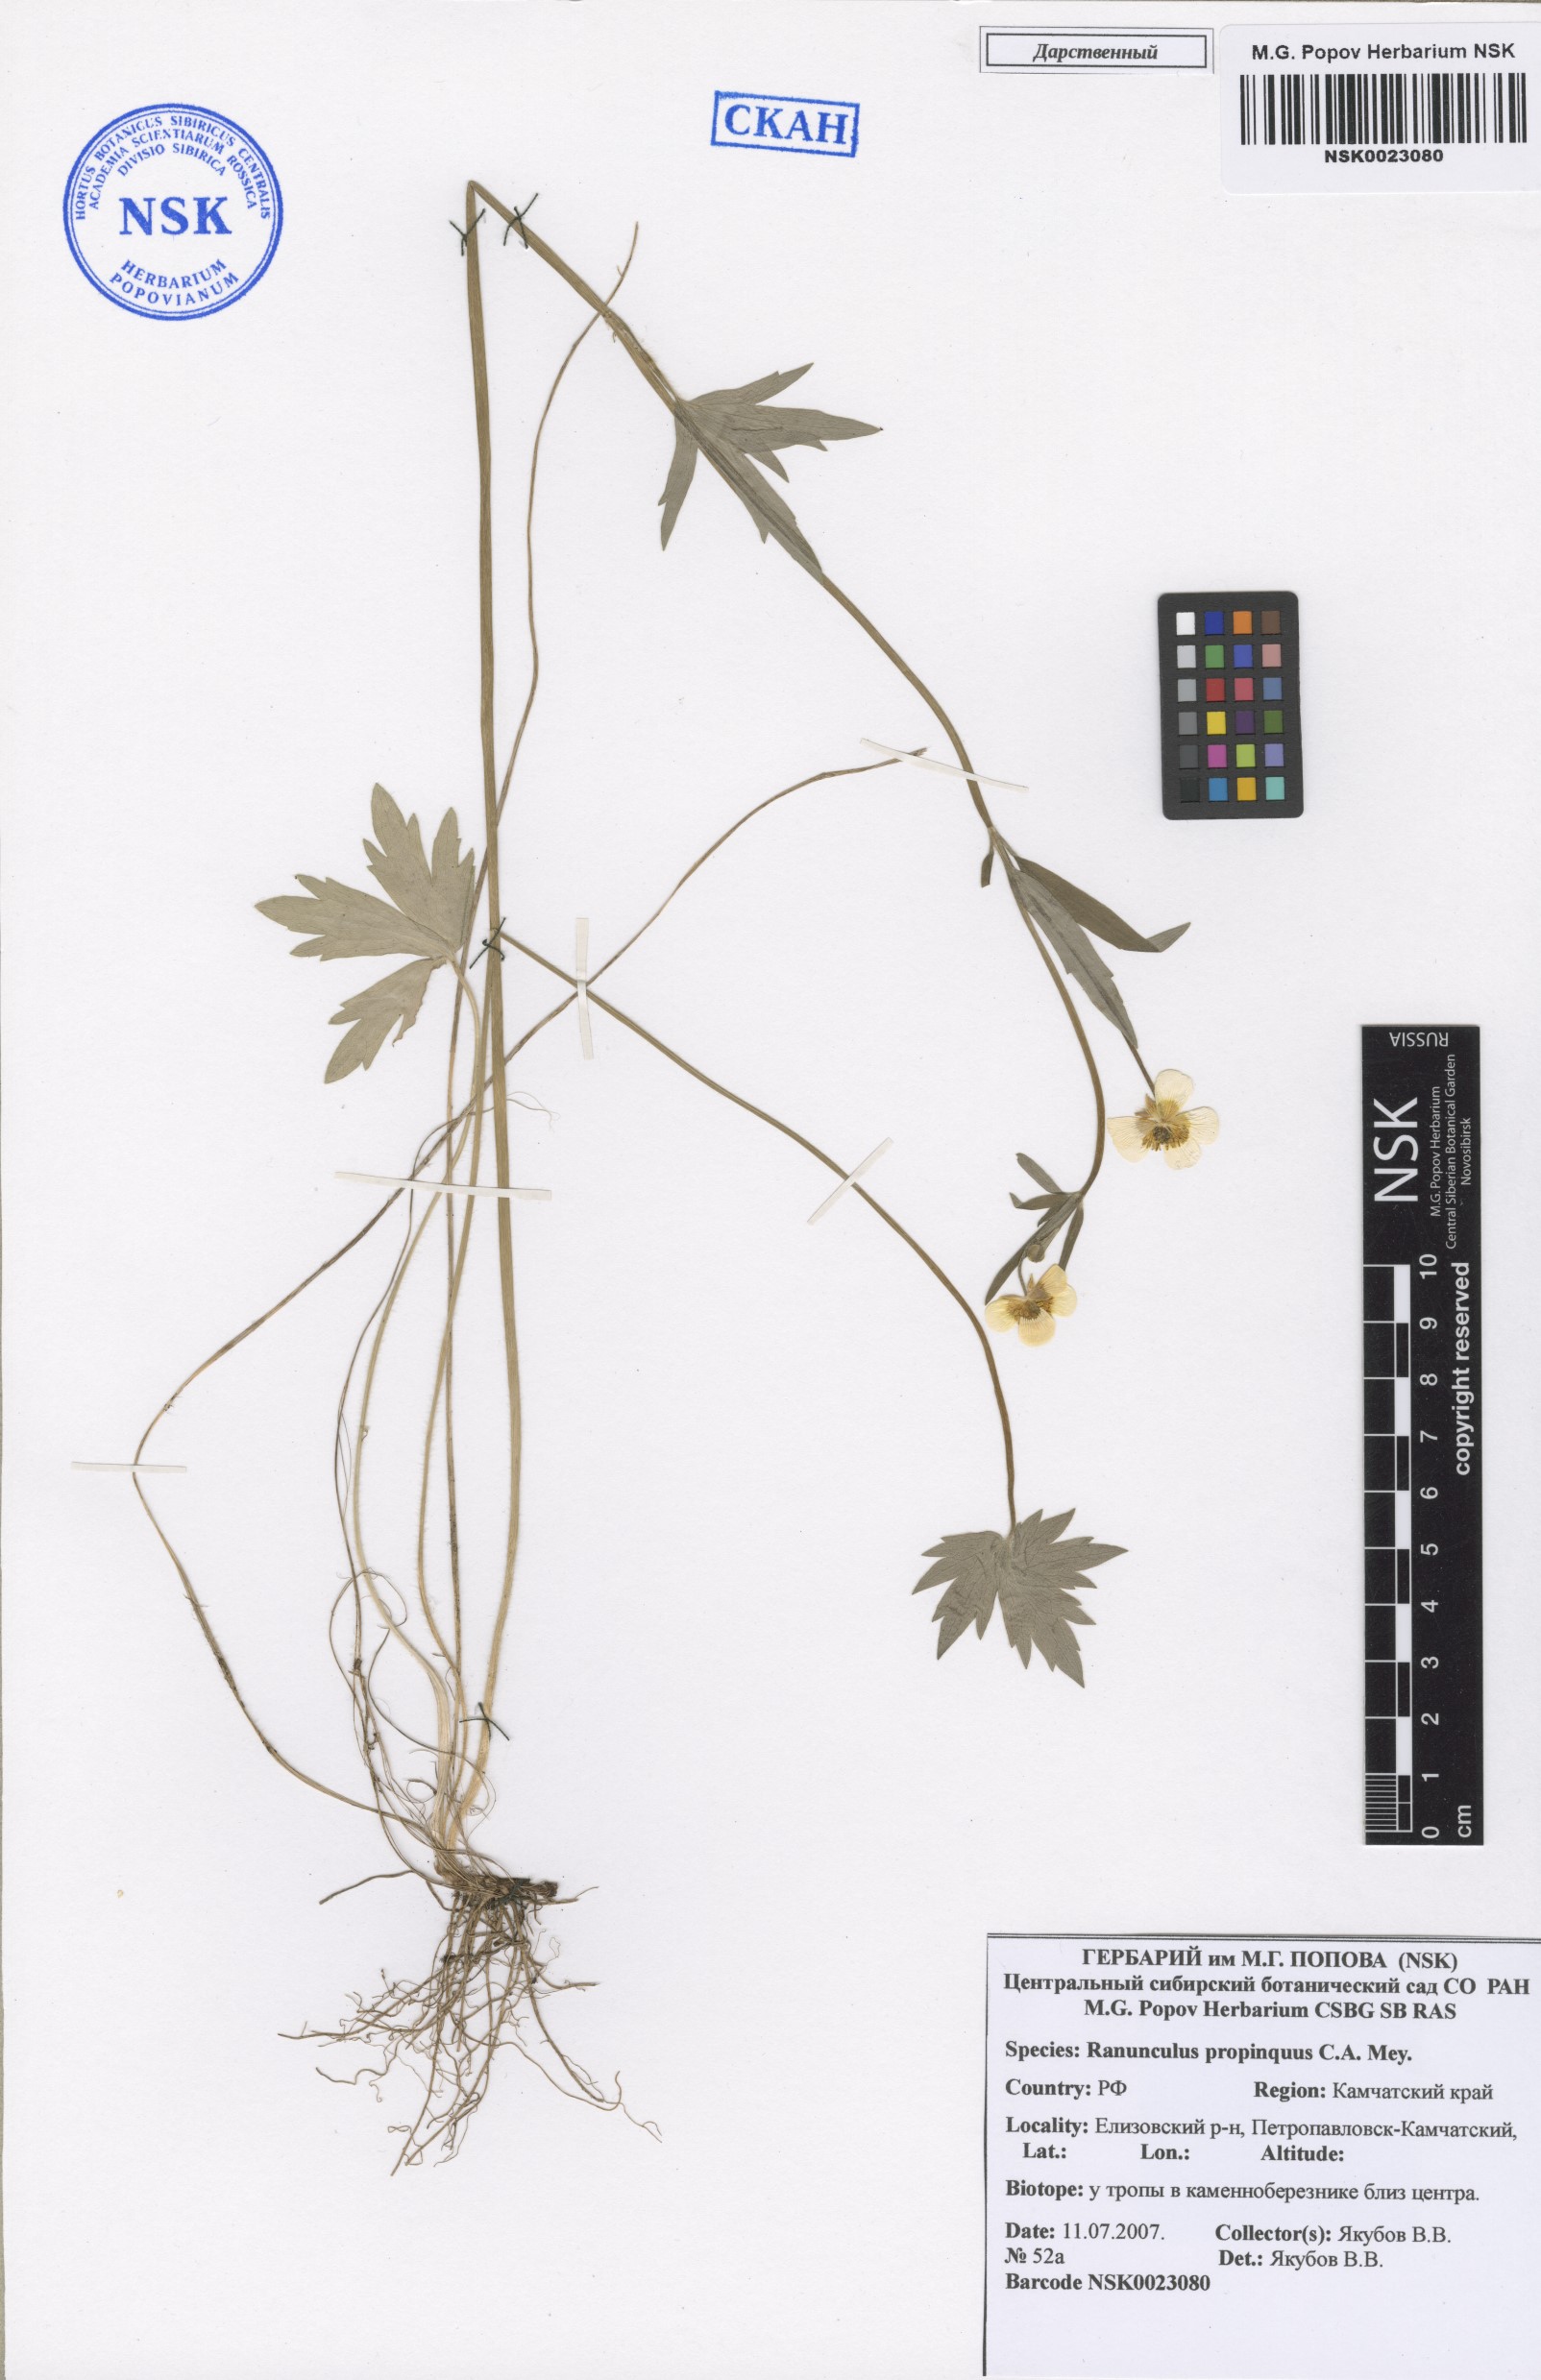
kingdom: Plantae
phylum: Tracheophyta
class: Magnoliopsida
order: Ranunculales
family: Ranunculaceae
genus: Ranunculus
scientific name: Ranunculus propinquus
